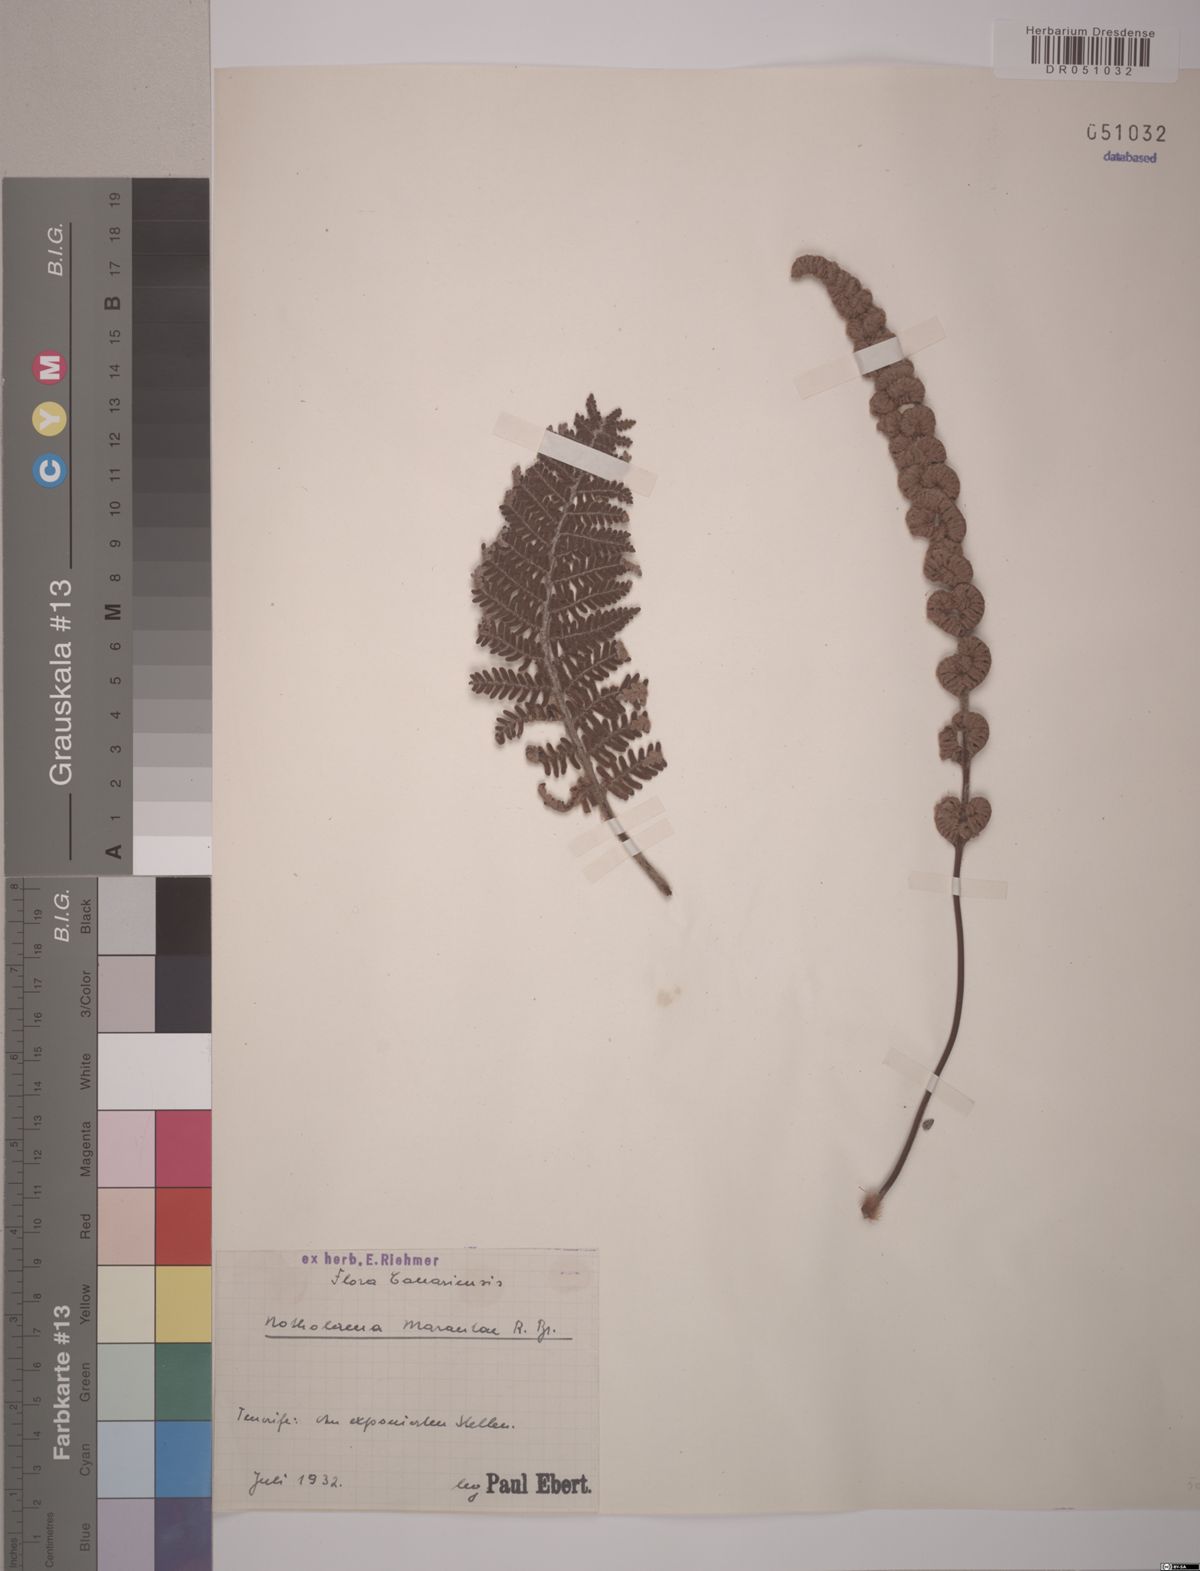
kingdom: Plantae
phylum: Tracheophyta
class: Polypodiopsida
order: Polypodiales
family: Pteridaceae
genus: Paragymnopteris
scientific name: Paragymnopteris marantae
